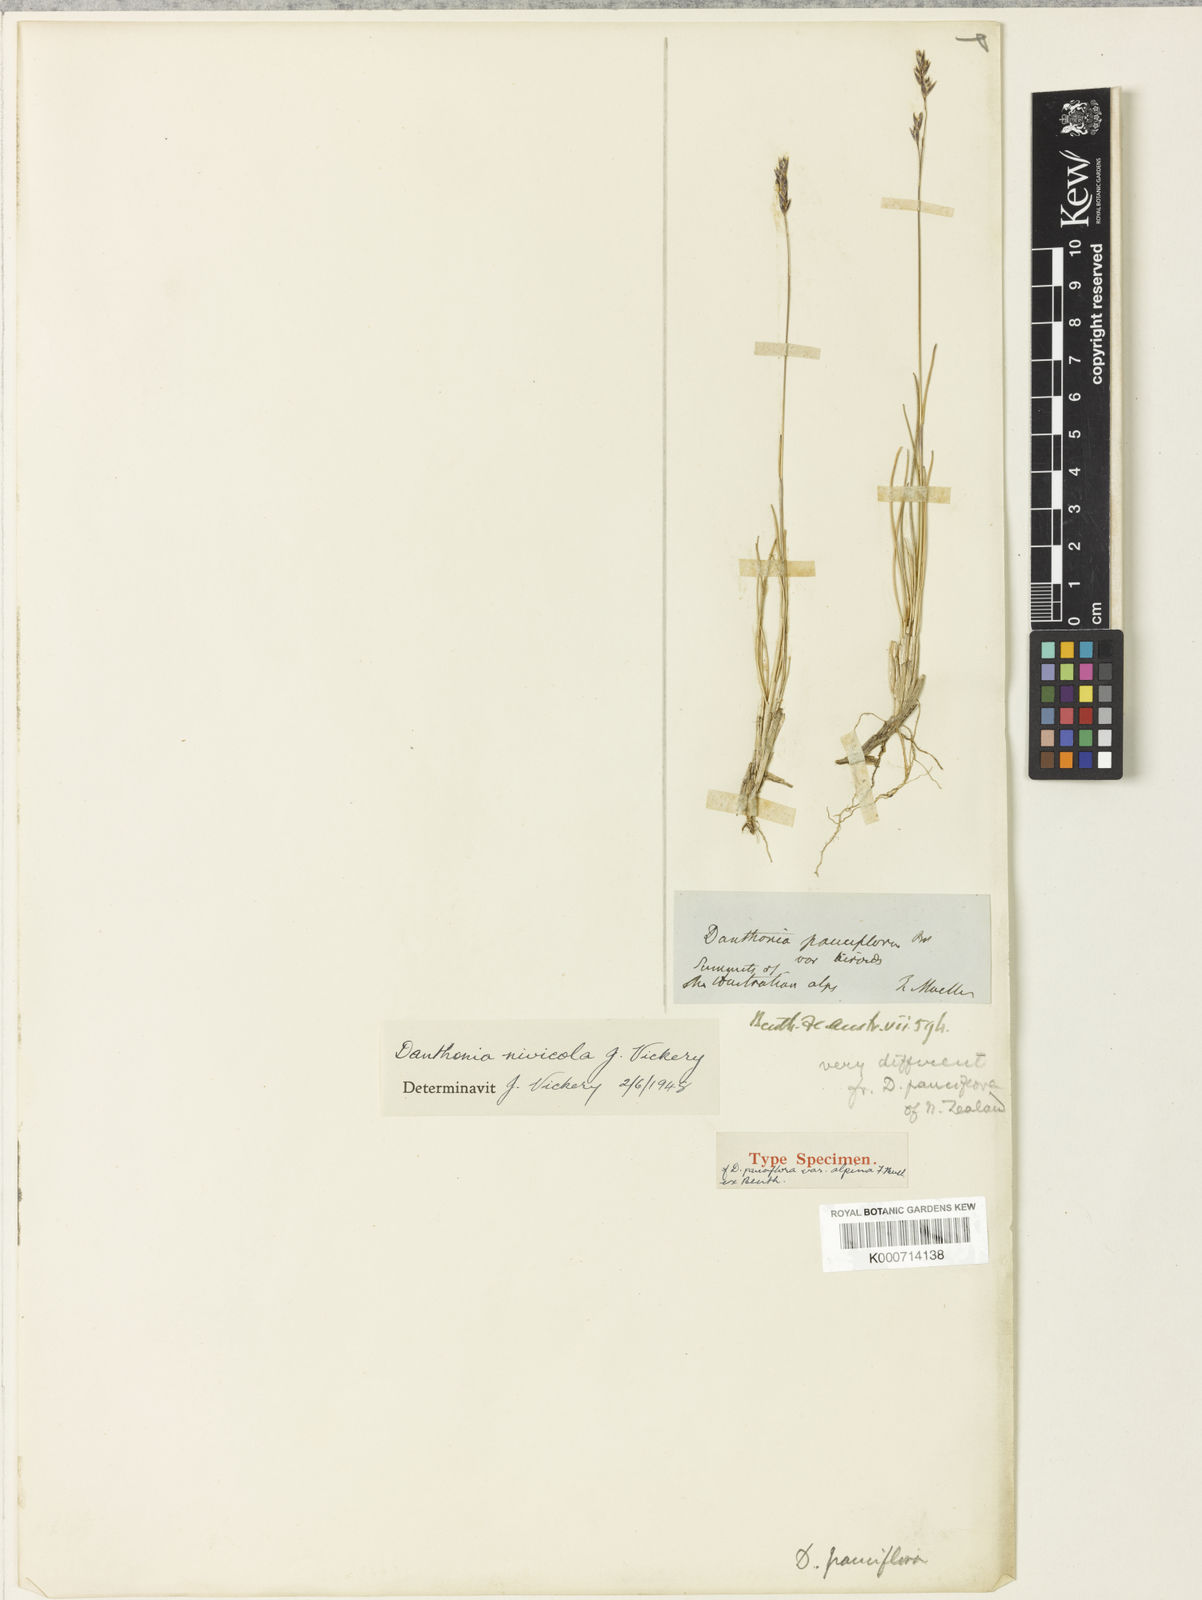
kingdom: Plantae
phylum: Tracheophyta
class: Liliopsida
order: Poales
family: Poaceae
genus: Rytidosperma
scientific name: Rytidosperma nivicola
